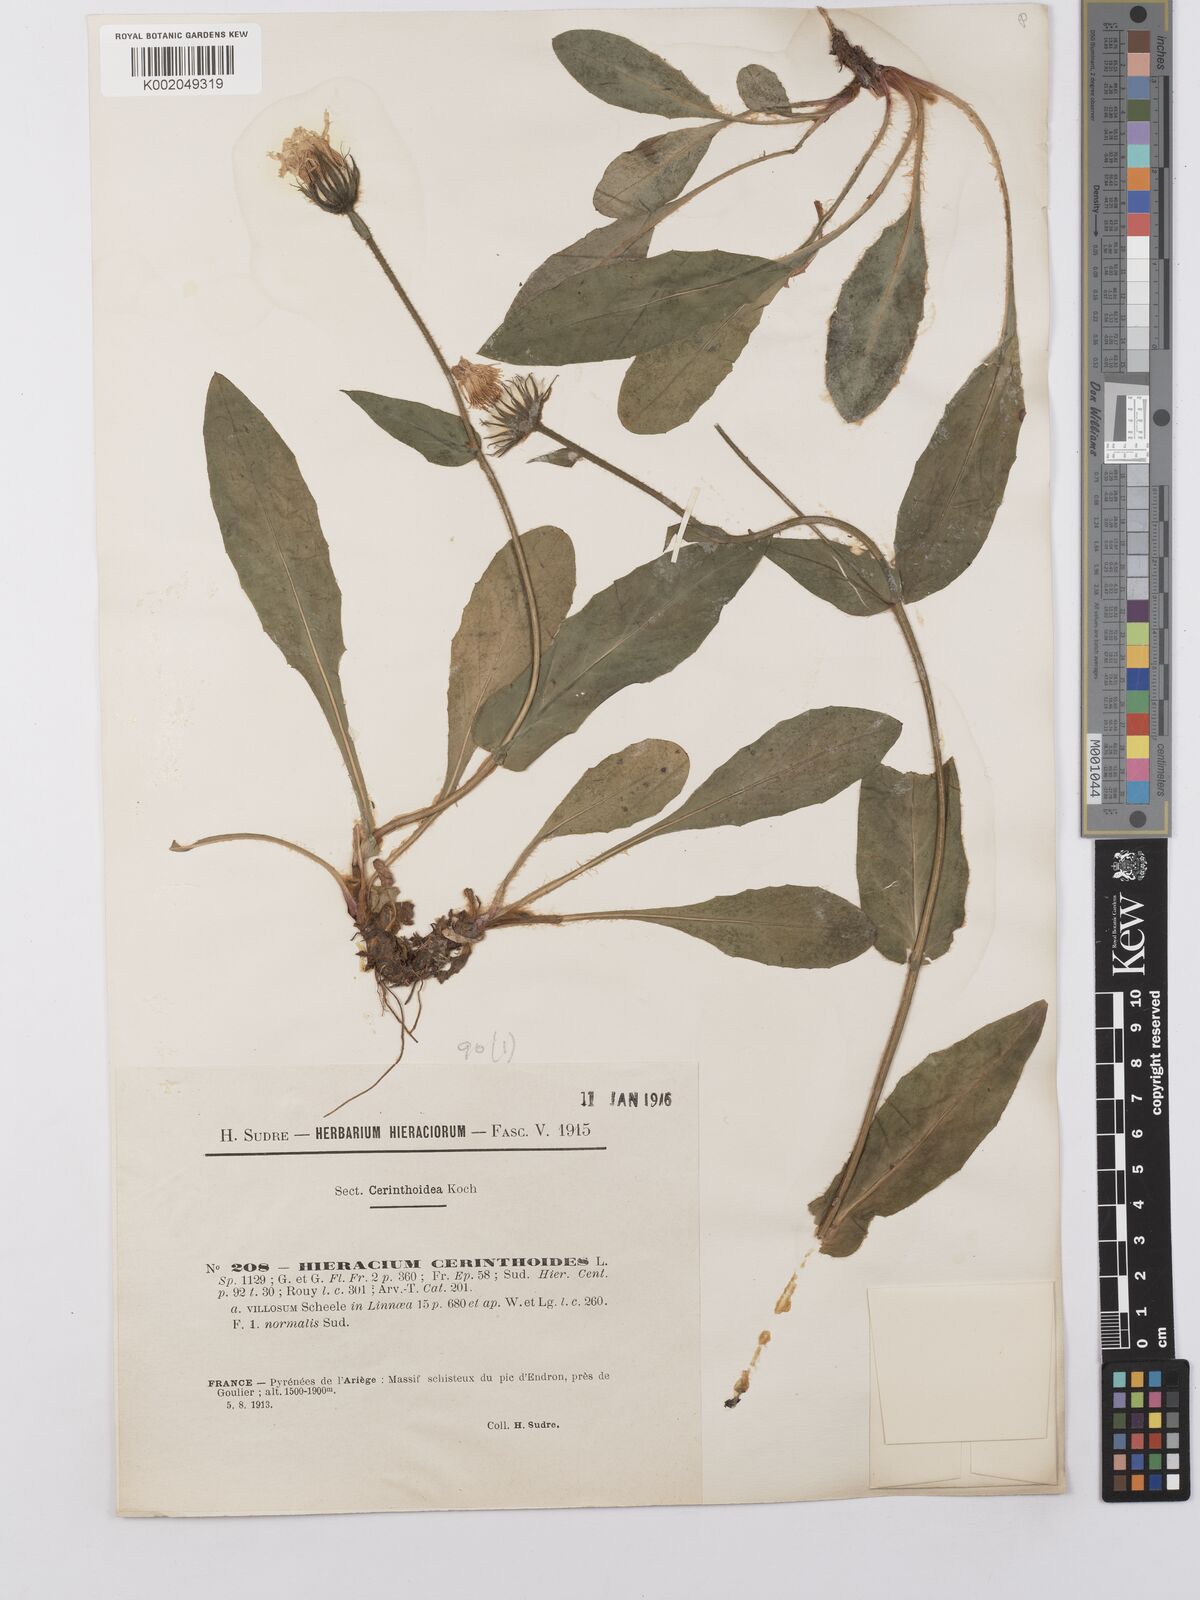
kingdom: Plantae
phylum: Tracheophyta
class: Magnoliopsida
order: Asterales
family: Asteraceae
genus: Hieracium
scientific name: Hieracium cerinthoides
